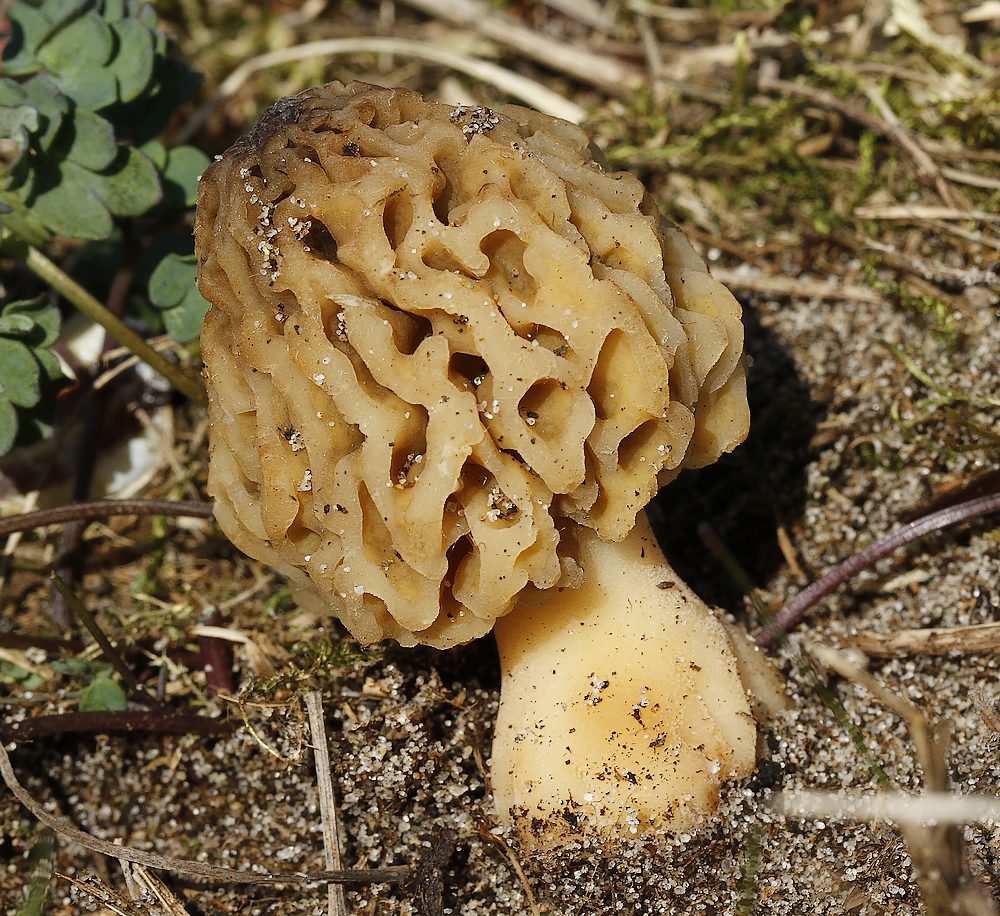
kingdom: Fungi
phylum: Ascomycota
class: Pezizomycetes
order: Pezizales
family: Morchellaceae
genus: Morchella
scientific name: Morchella esculenta
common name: Morel
